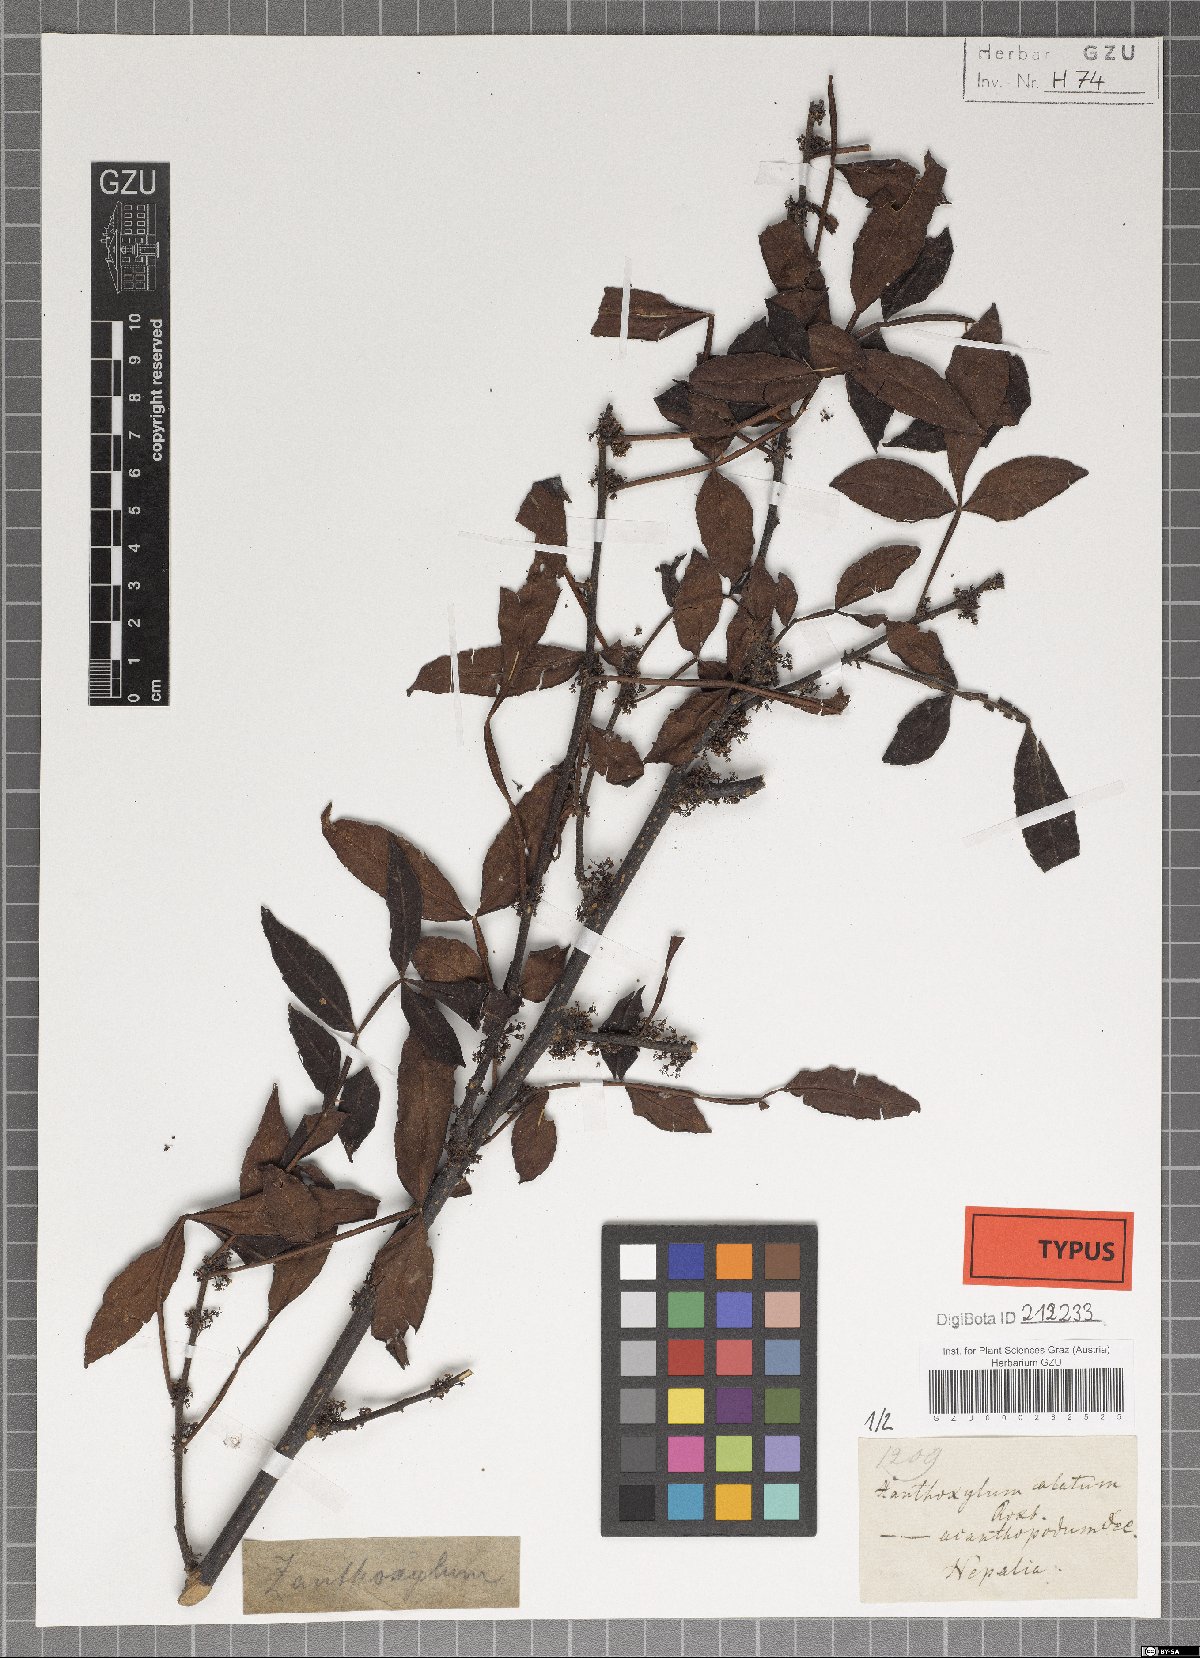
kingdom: Plantae
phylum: Tracheophyta
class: Magnoliopsida
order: Sapindales
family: Rutaceae
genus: Zanthoxylum
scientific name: Zanthoxylum acanthopodium
